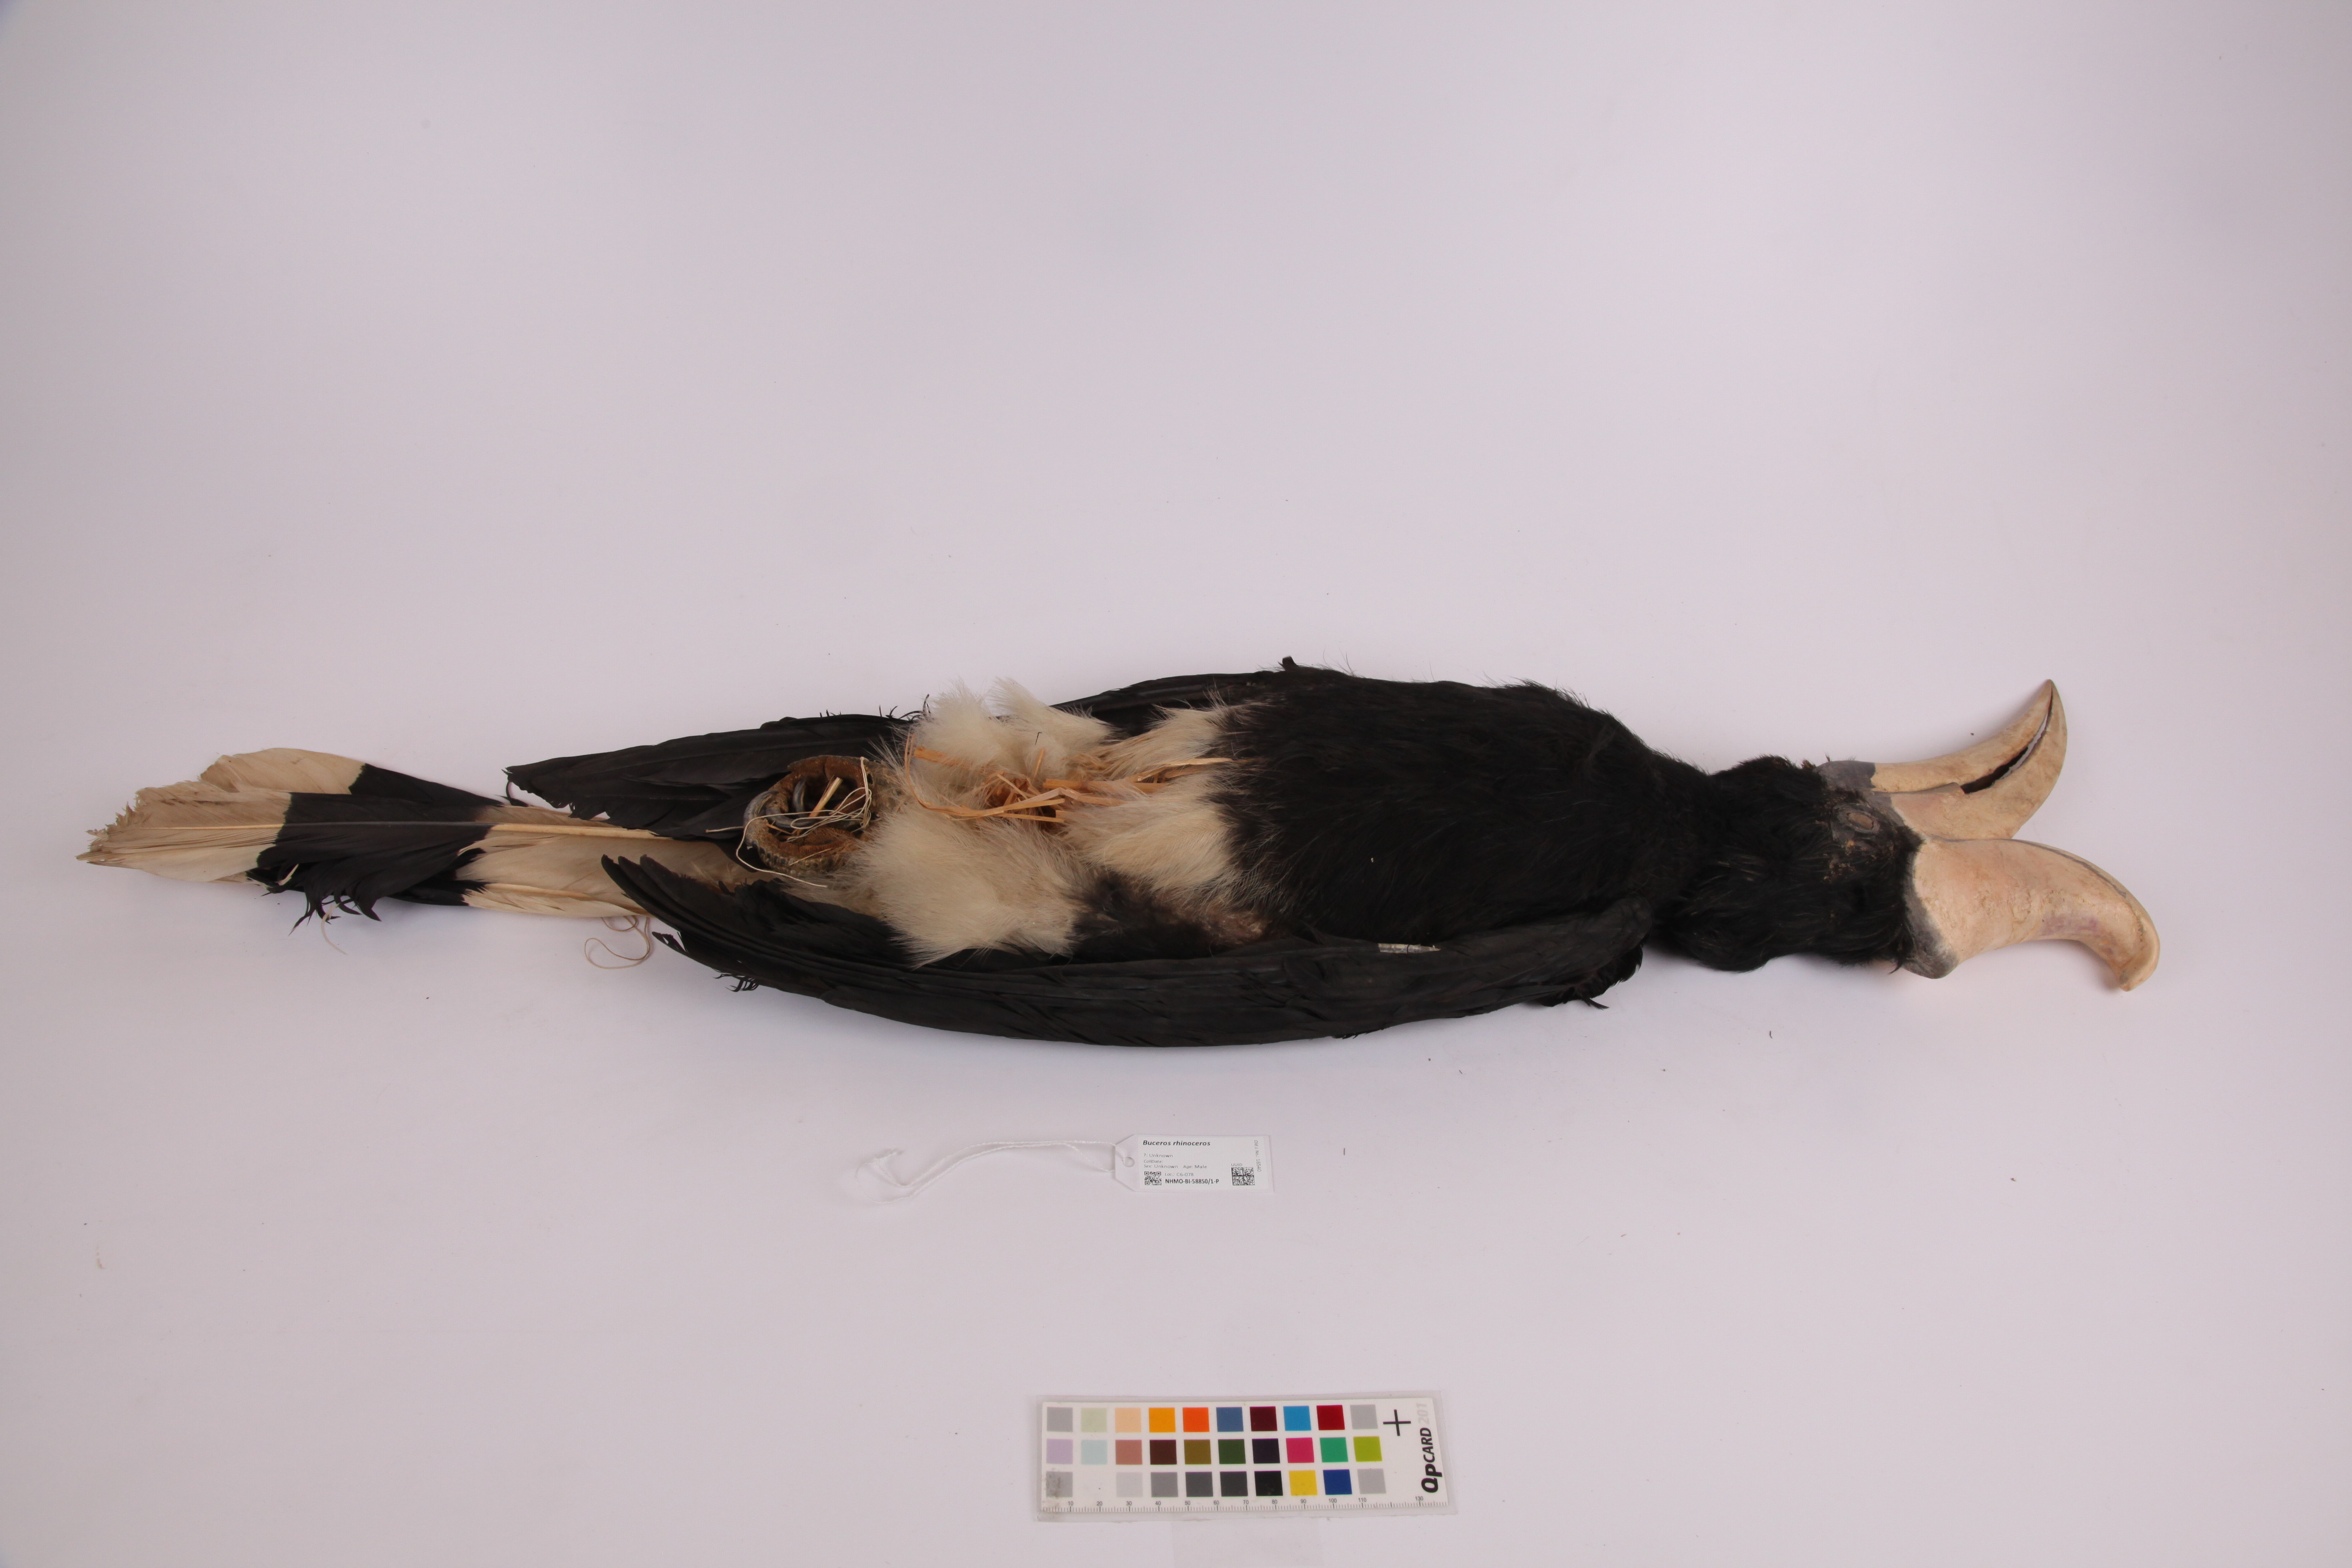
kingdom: Animalia
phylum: Chordata
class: Aves
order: Bucerotiformes
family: Bucerotidae
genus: Buceros
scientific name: Buceros rhinoceros
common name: Rhinoceros hornbill
